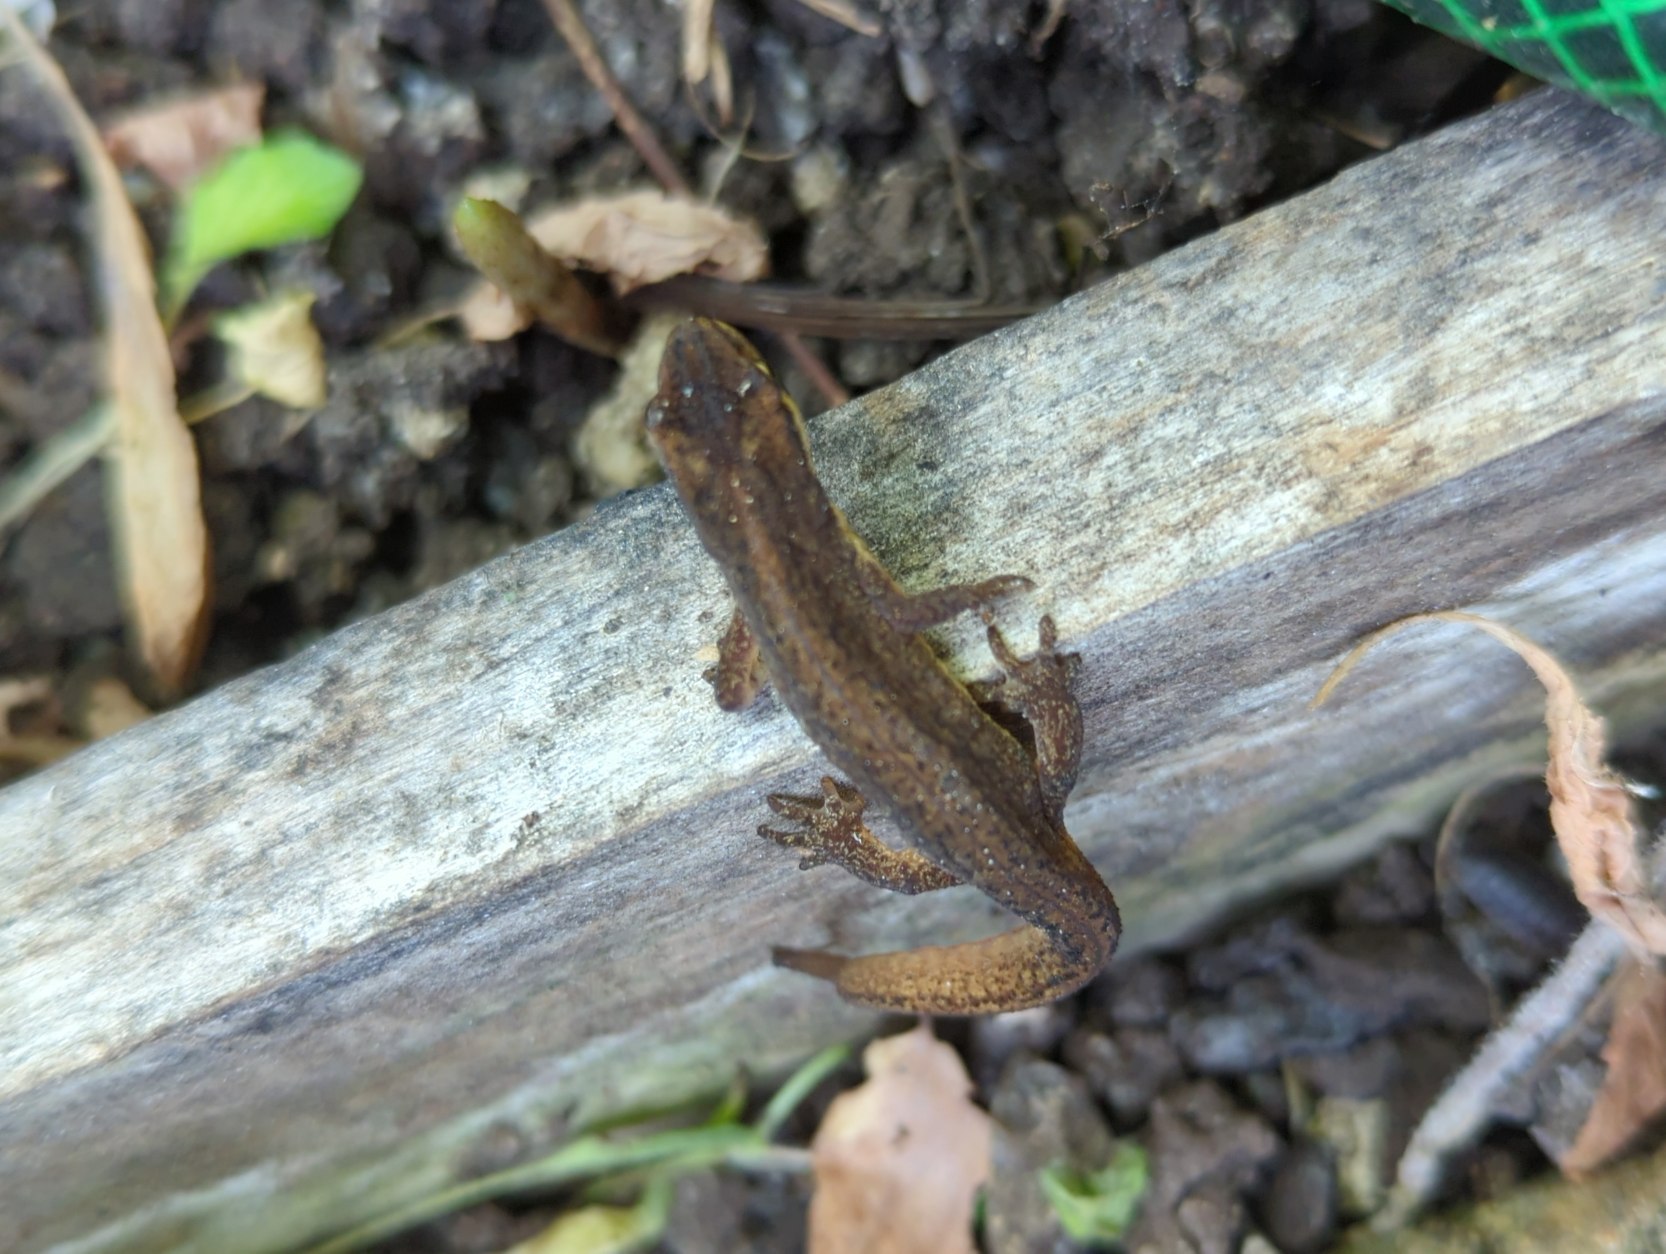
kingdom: Animalia
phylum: Chordata
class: Amphibia
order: Caudata
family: Salamandridae
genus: Lissotriton
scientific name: Lissotriton vulgaris
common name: Lille vandsalamander
